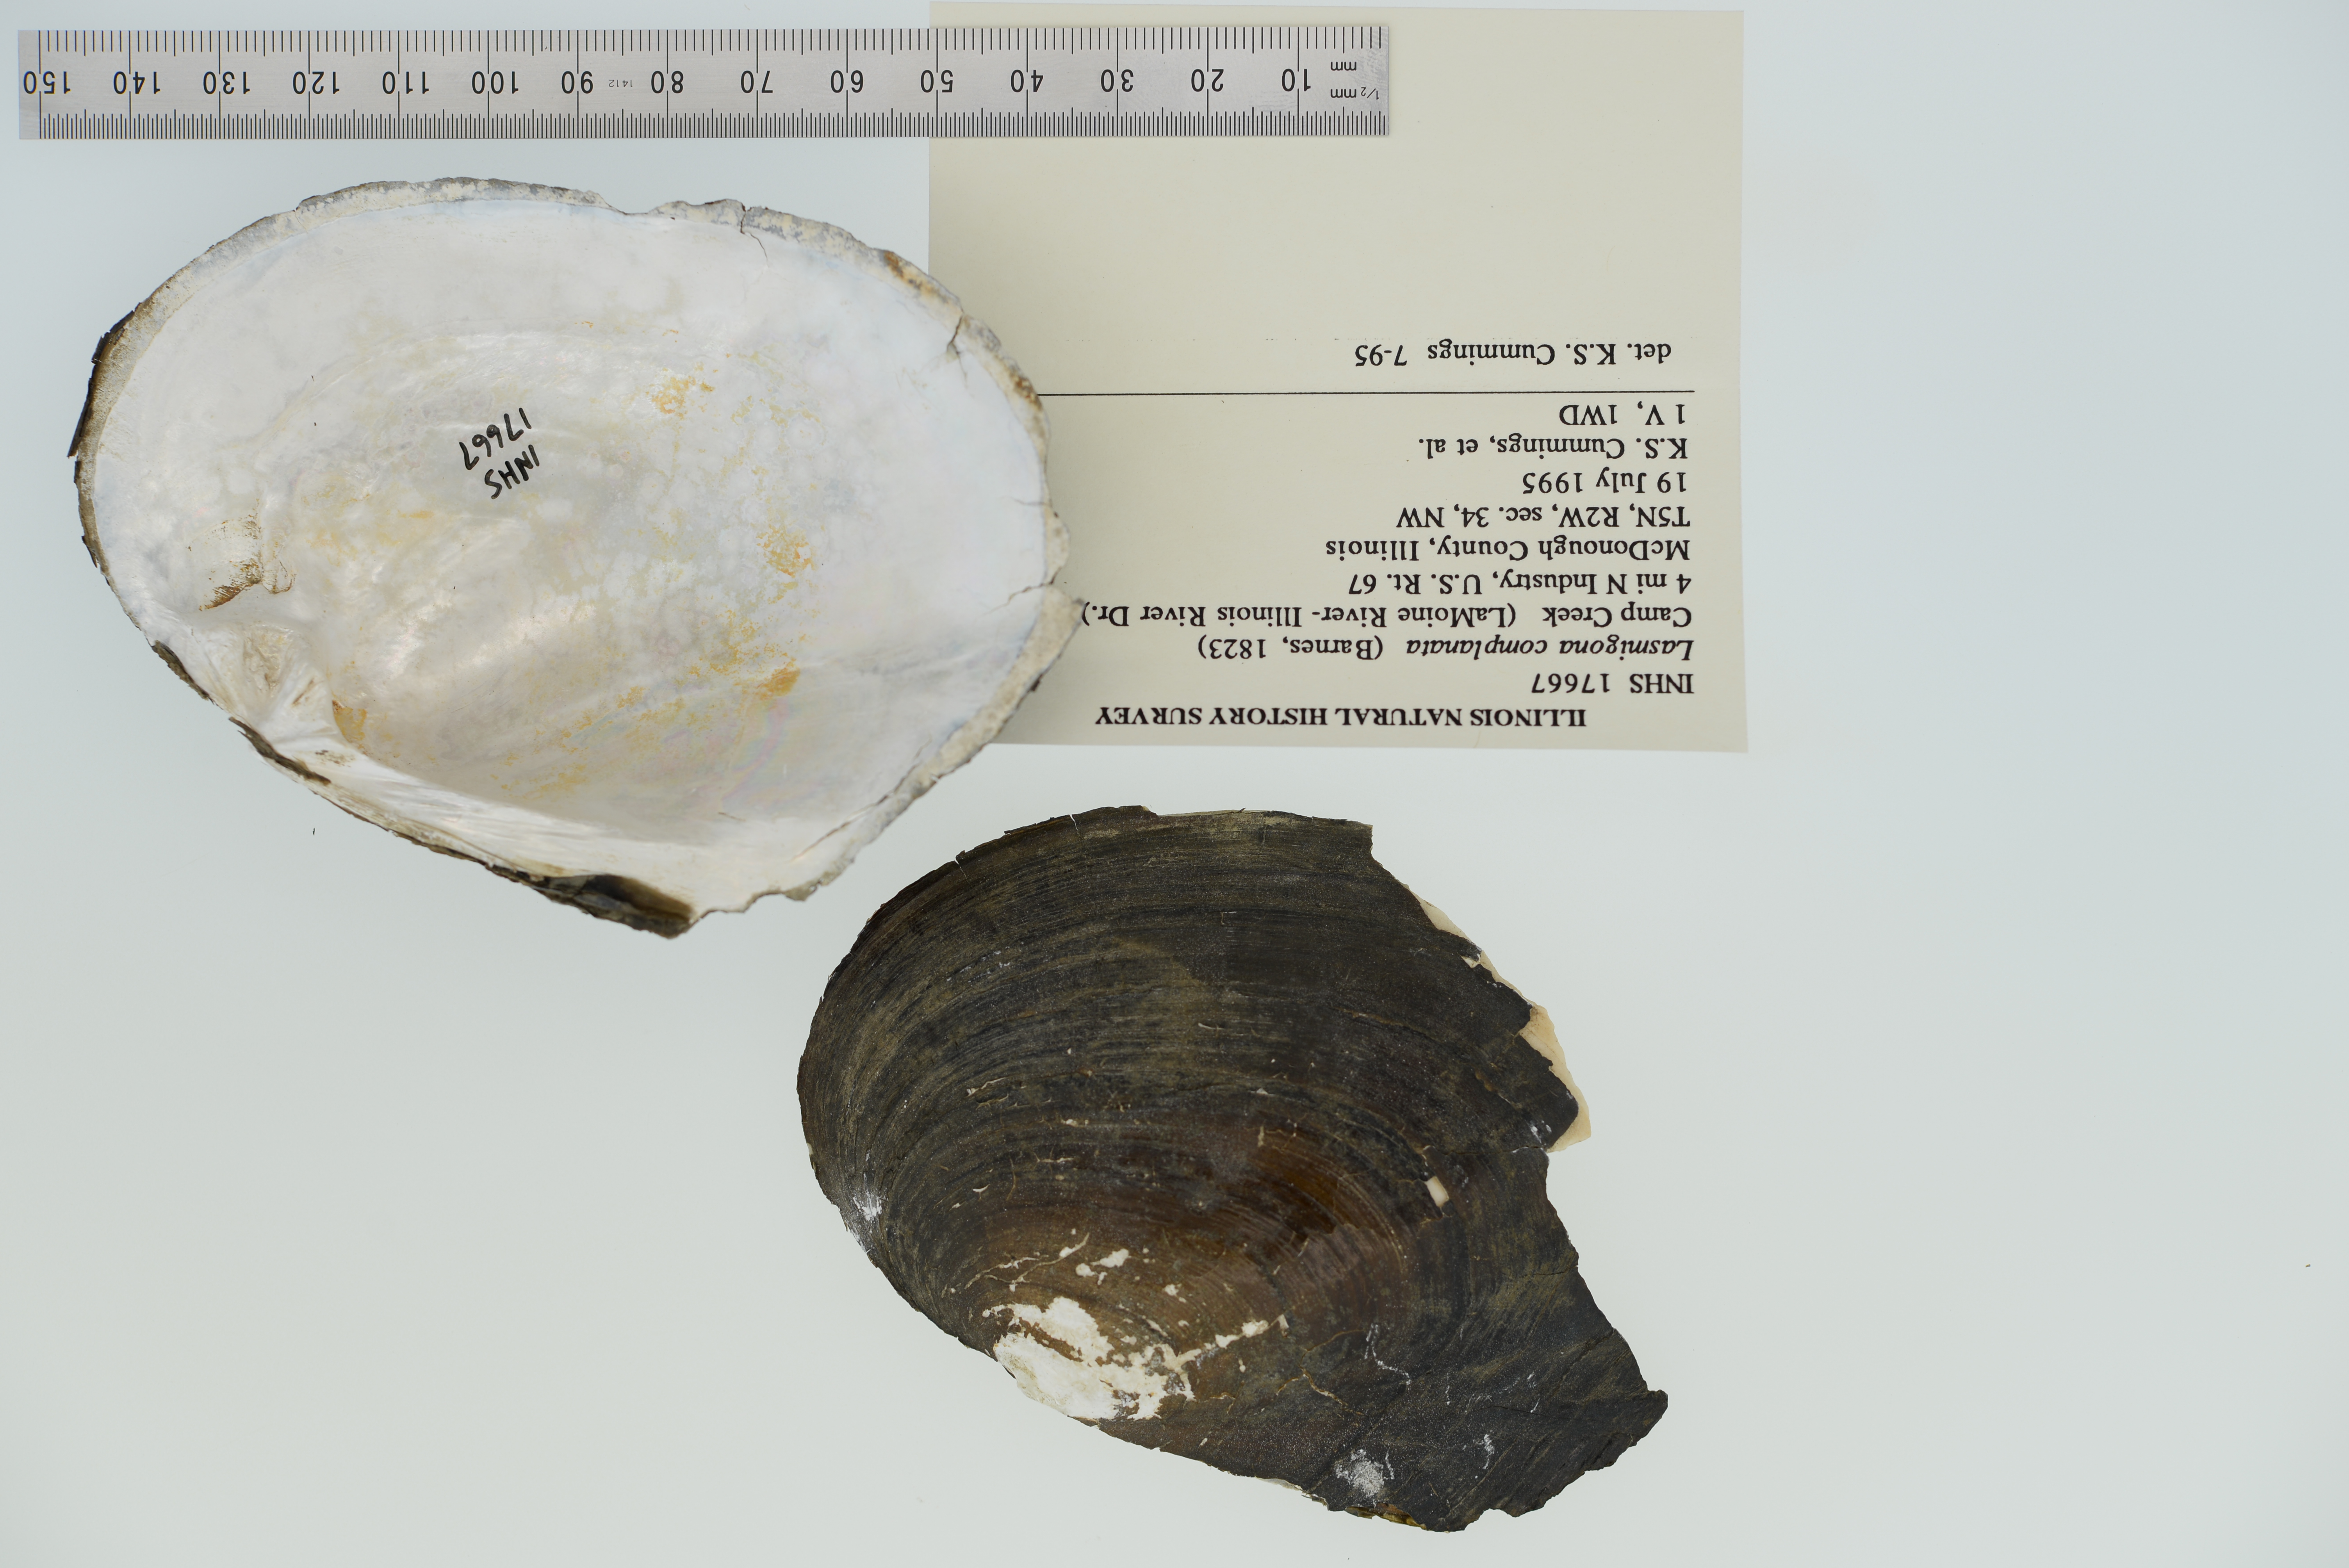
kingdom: Animalia
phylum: Mollusca
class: Bivalvia
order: Unionida
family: Unionidae
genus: Lasmigona
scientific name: Lasmigona complanata
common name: White heelsplitter
